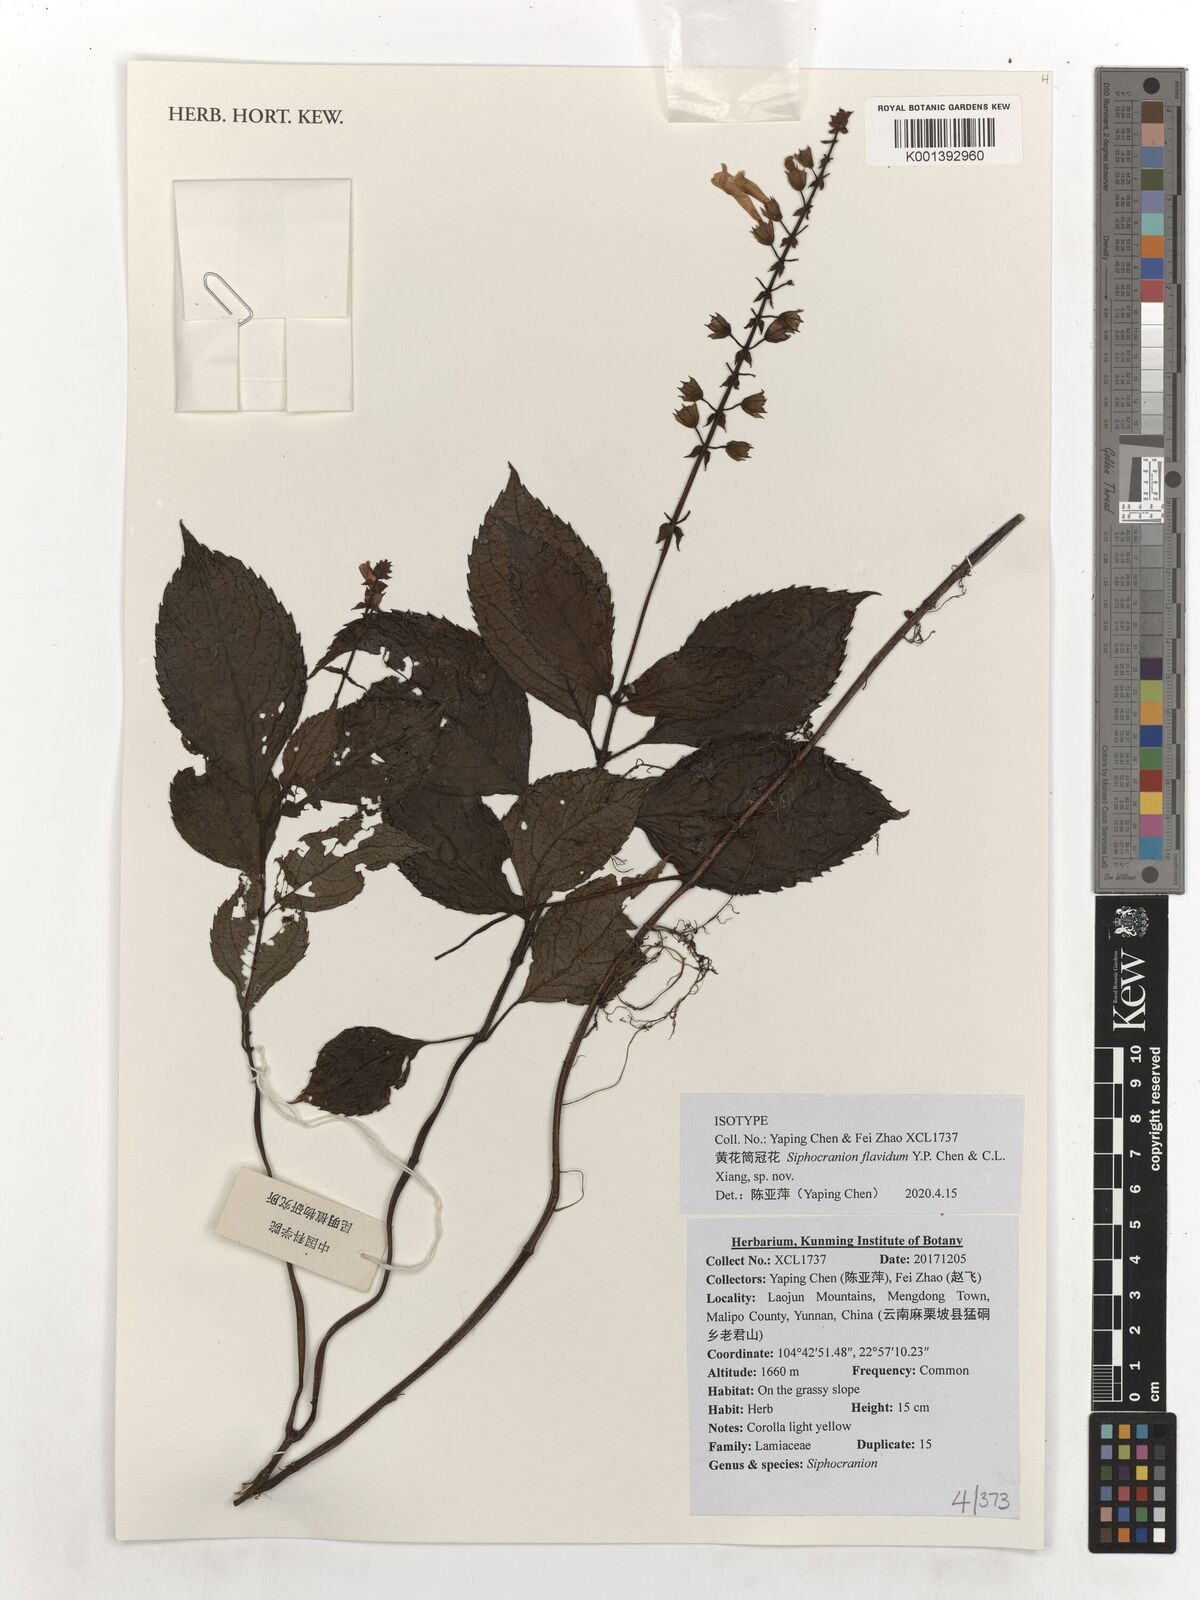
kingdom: Plantae
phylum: Tracheophyta
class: Magnoliopsida
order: Lamiales
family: Lamiaceae
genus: Siphocranion
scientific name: Siphocranion flavidum
